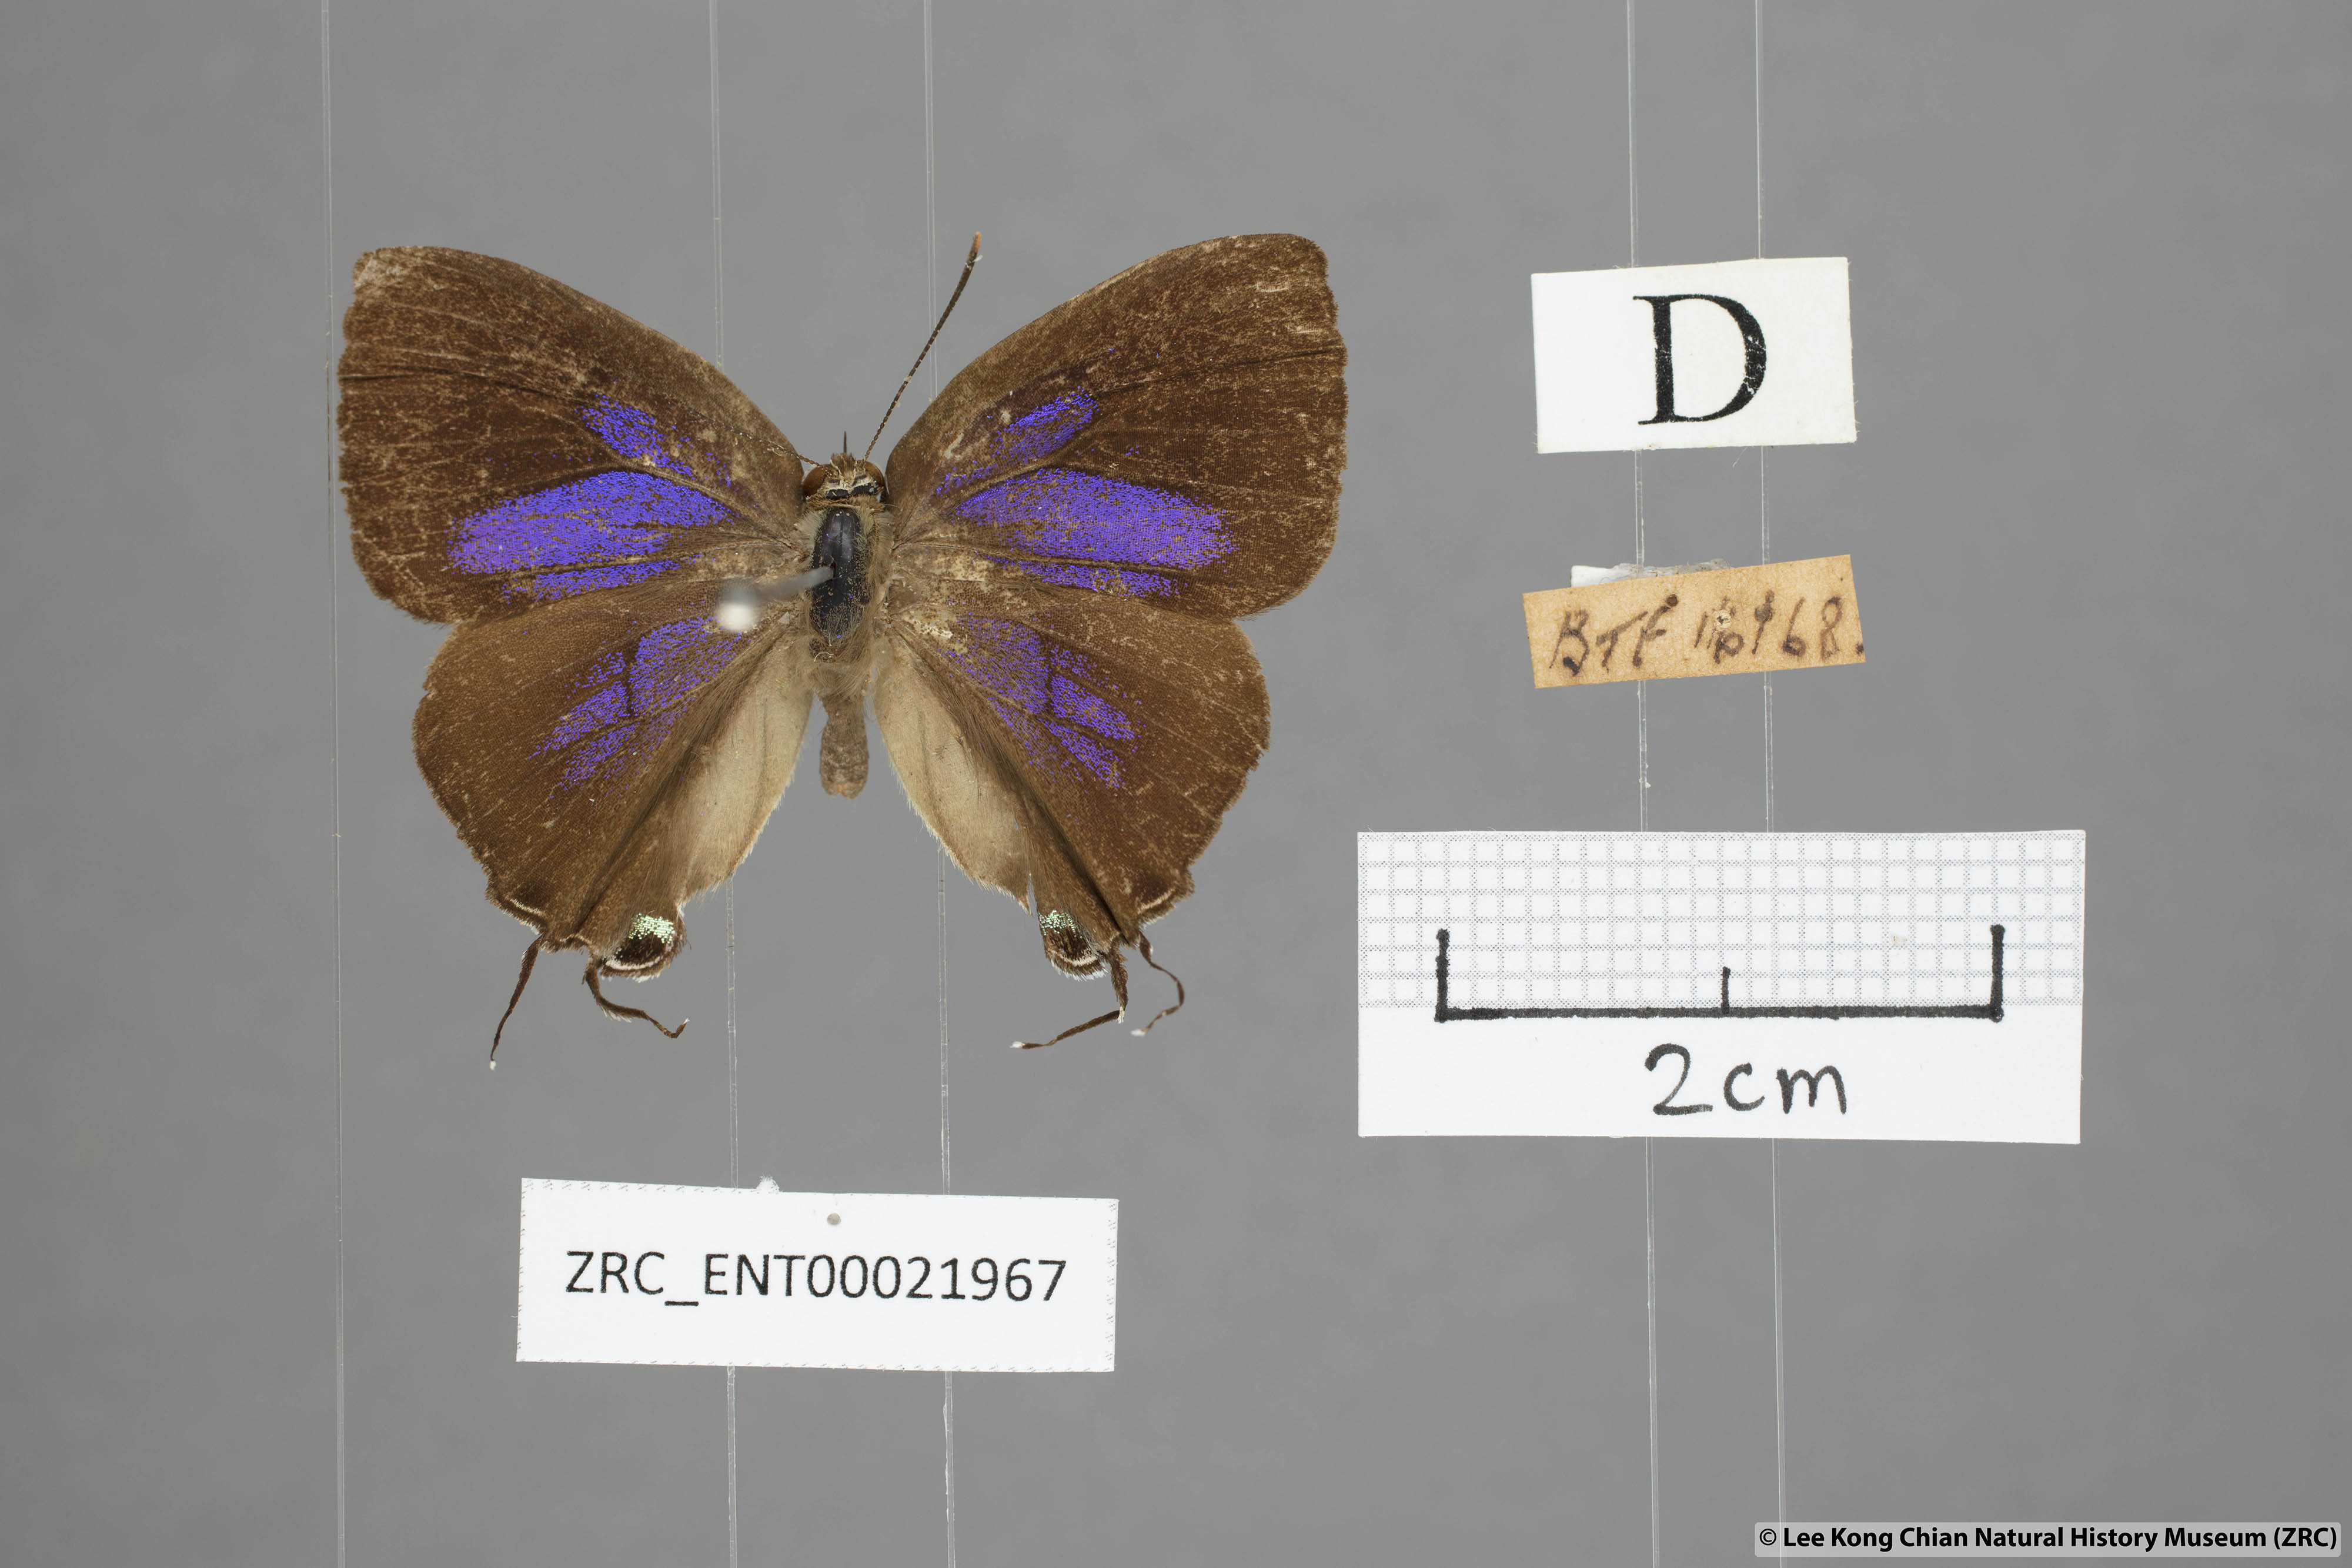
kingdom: Animalia
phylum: Arthropoda
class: Insecta
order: Lepidoptera
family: Lycaenidae
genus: Remelana
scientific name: Remelana jangala
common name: Chocolate royal
